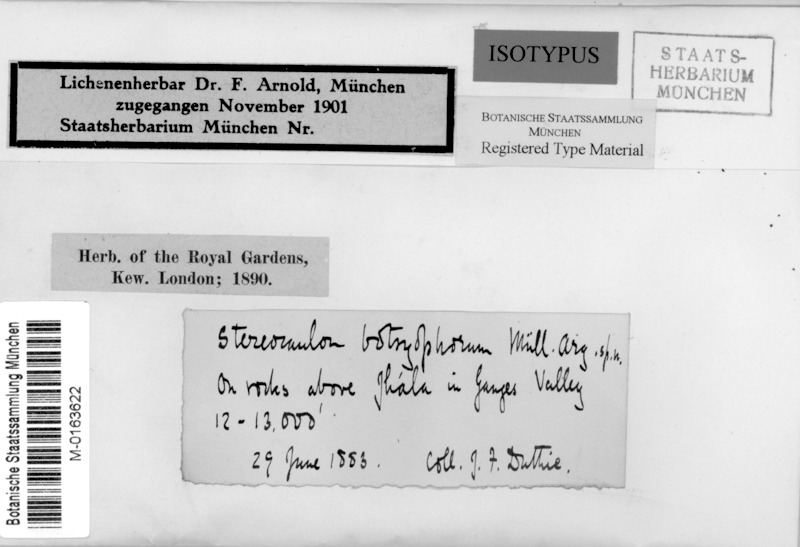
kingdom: Fungi
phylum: Ascomycota
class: Lecanoromycetes
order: Lecanorales
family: Stereocaulaceae
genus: Stereocaulon
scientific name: Stereocaulon foliolosum
